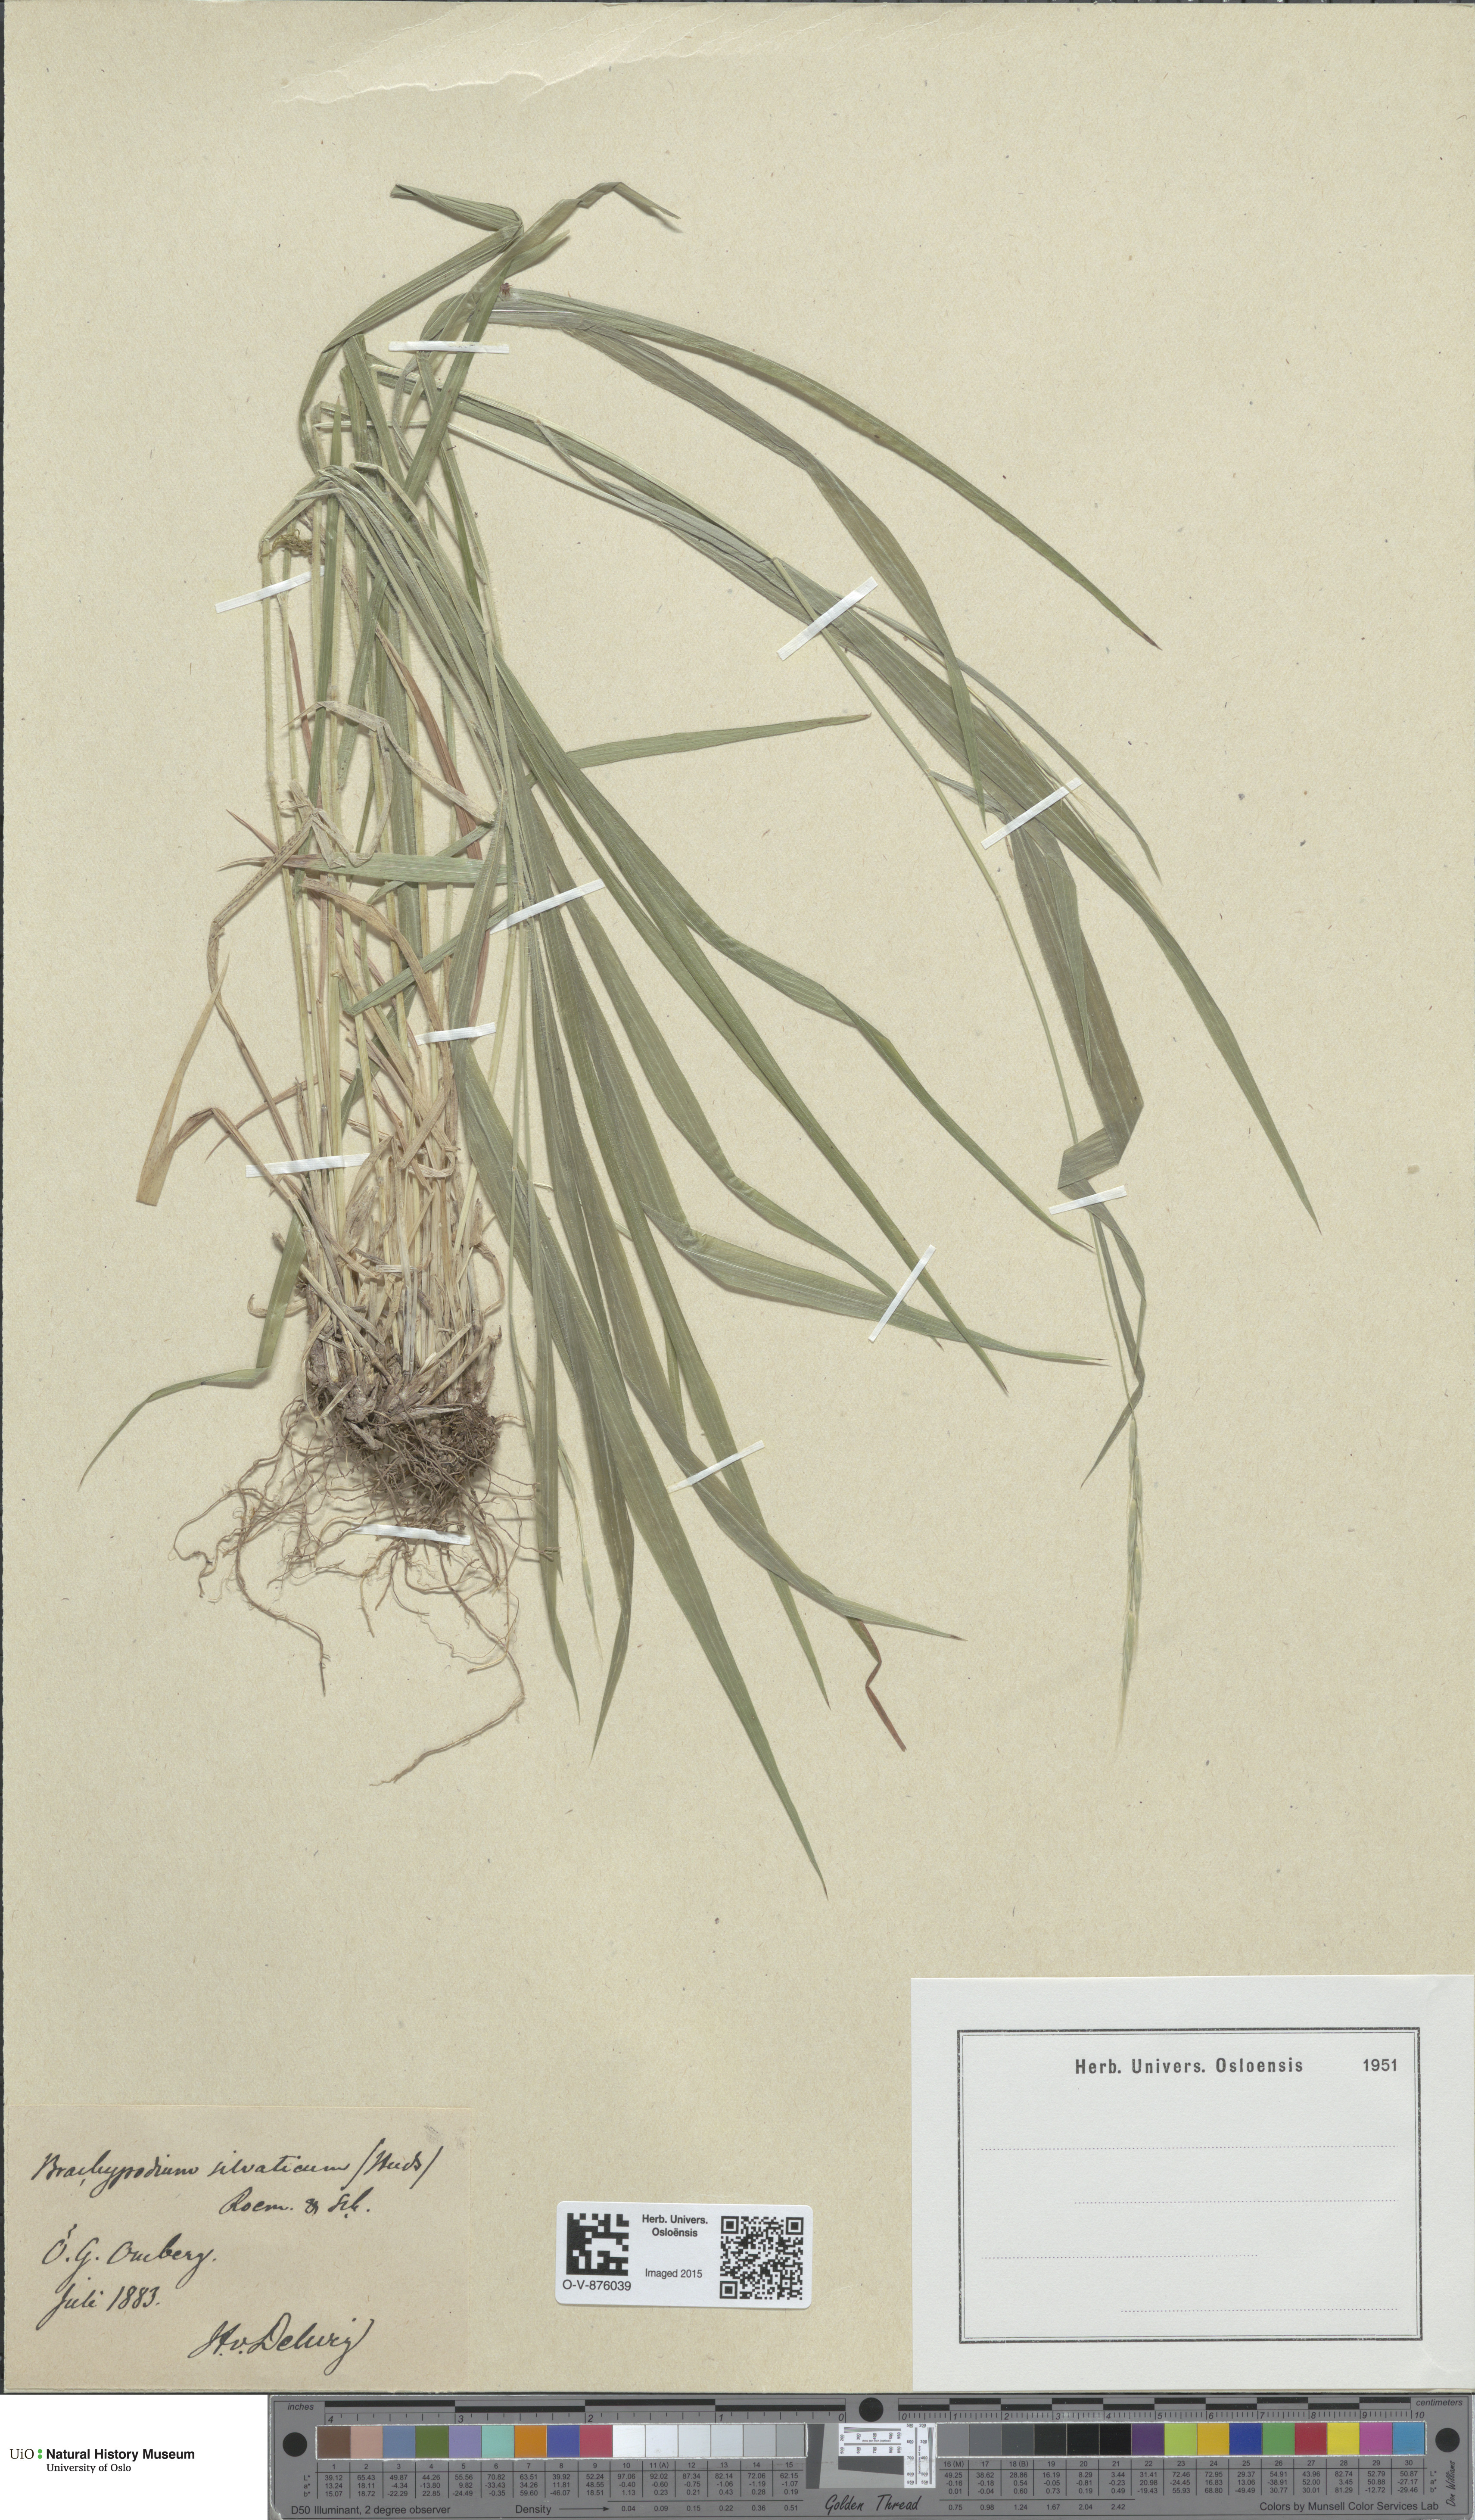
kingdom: Plantae
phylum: Tracheophyta
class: Liliopsida
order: Poales
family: Poaceae
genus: Brachypodium
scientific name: Brachypodium sylvaticum
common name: False-brome
